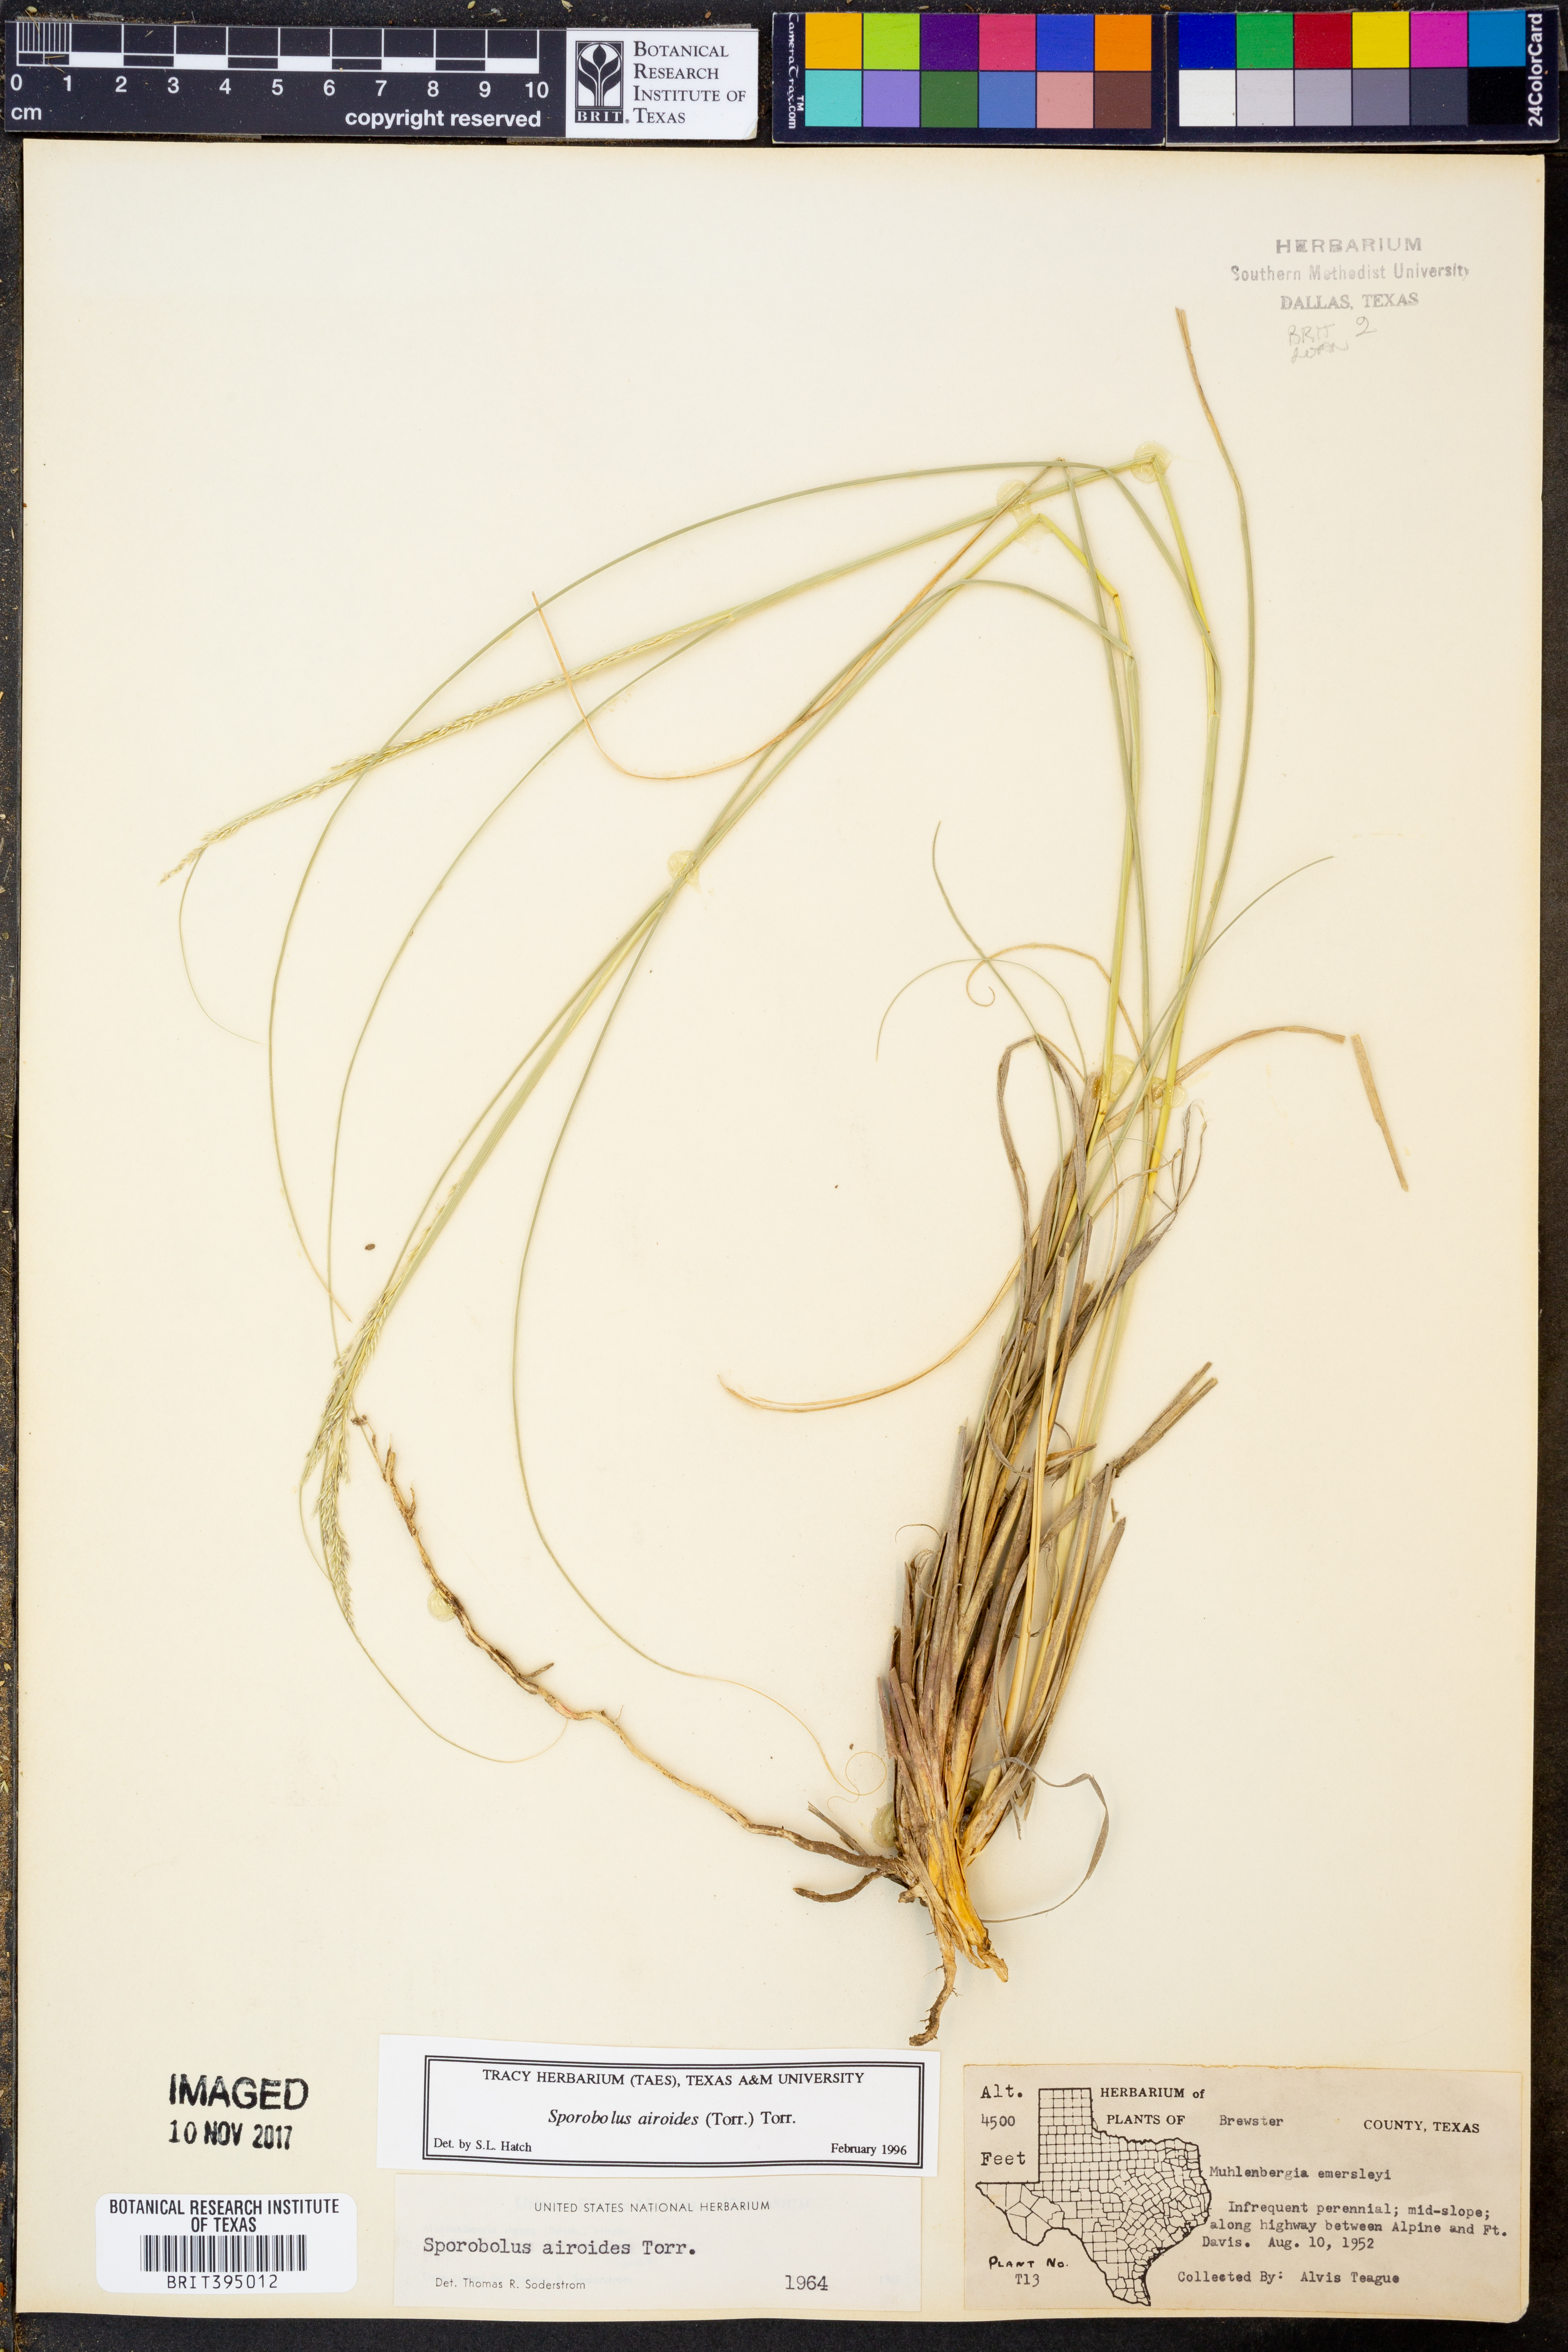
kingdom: Plantae
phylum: Tracheophyta
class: Liliopsida
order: Poales
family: Poaceae
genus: Sporobolus
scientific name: Sporobolus airoides
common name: Alkali sacaton
